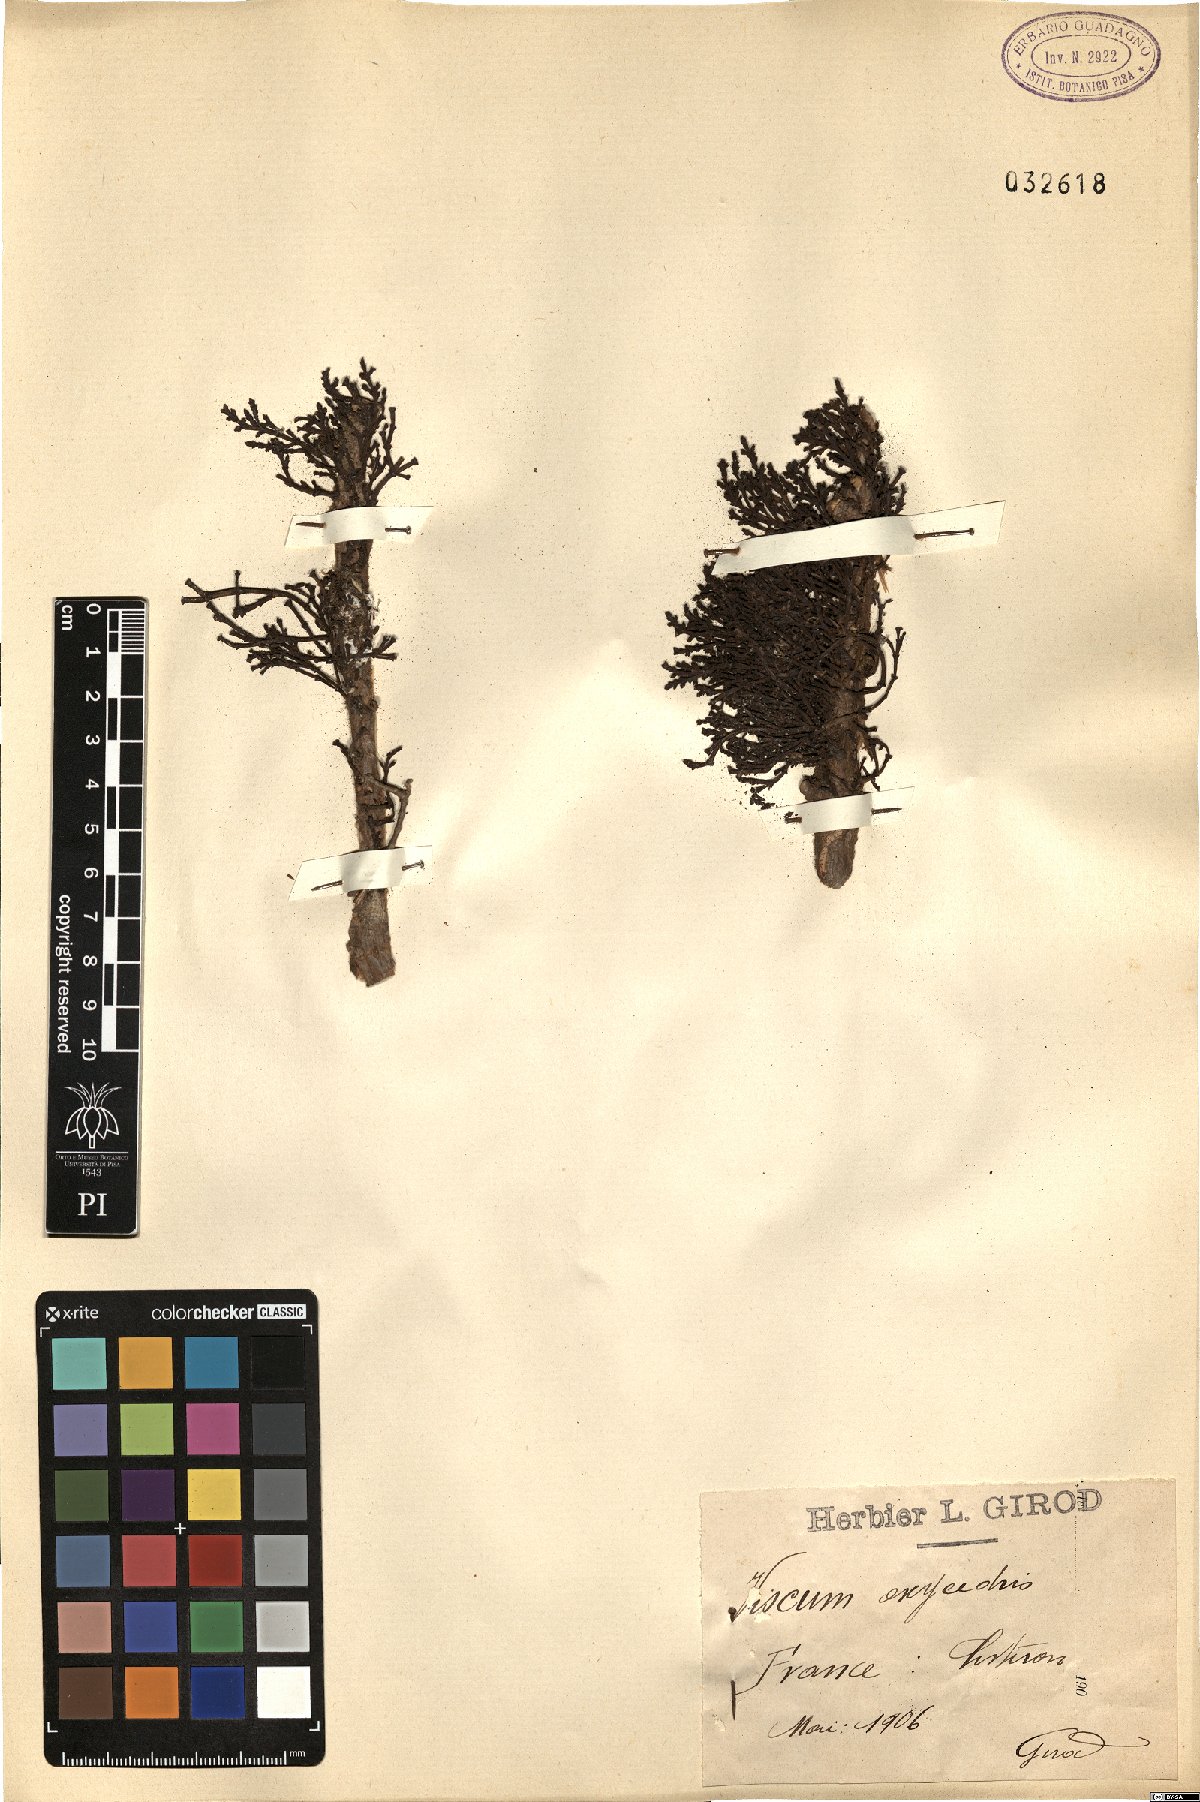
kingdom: Plantae
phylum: Tracheophyta
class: Magnoliopsida
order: Santalales
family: Viscaceae
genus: Arceuthobium
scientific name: Arceuthobium oxycedri
